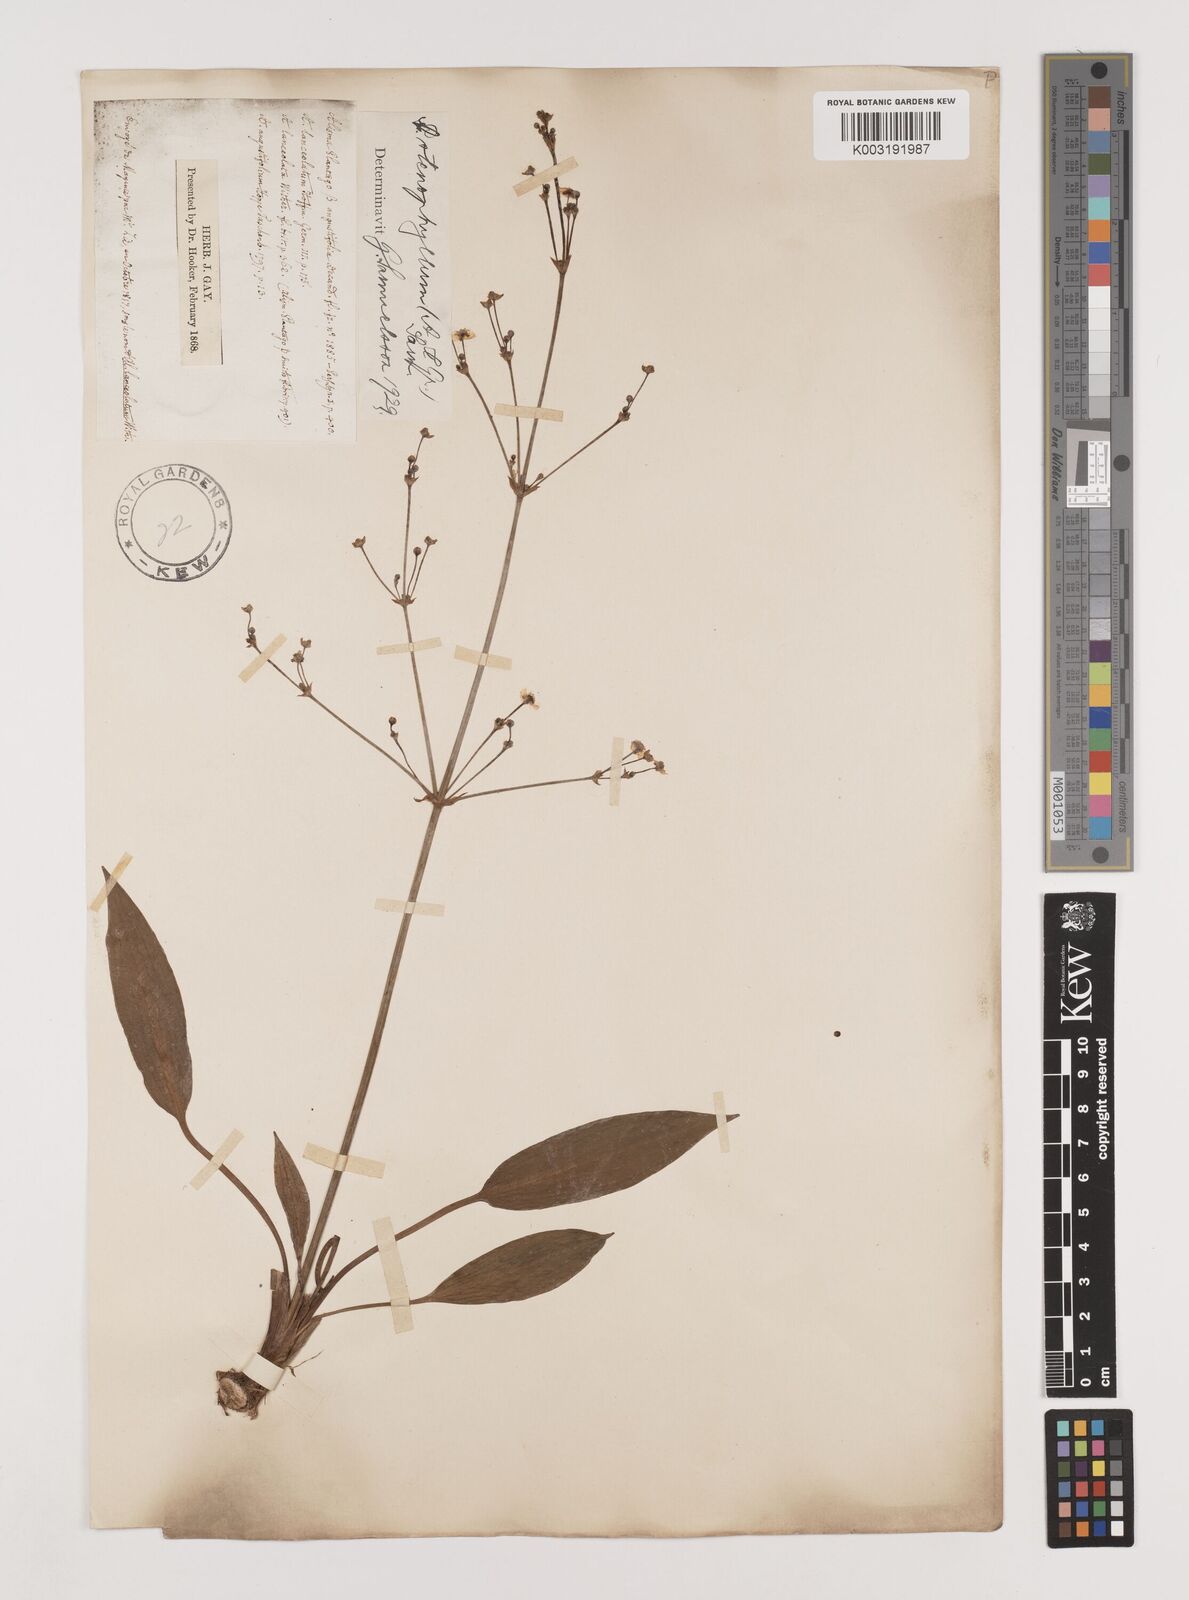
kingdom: Plantae
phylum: Tracheophyta
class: Liliopsida
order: Alismatales
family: Alismataceae
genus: Alisma
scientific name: Alisma lanceolatum
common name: Narrow-leaved water-plantain
